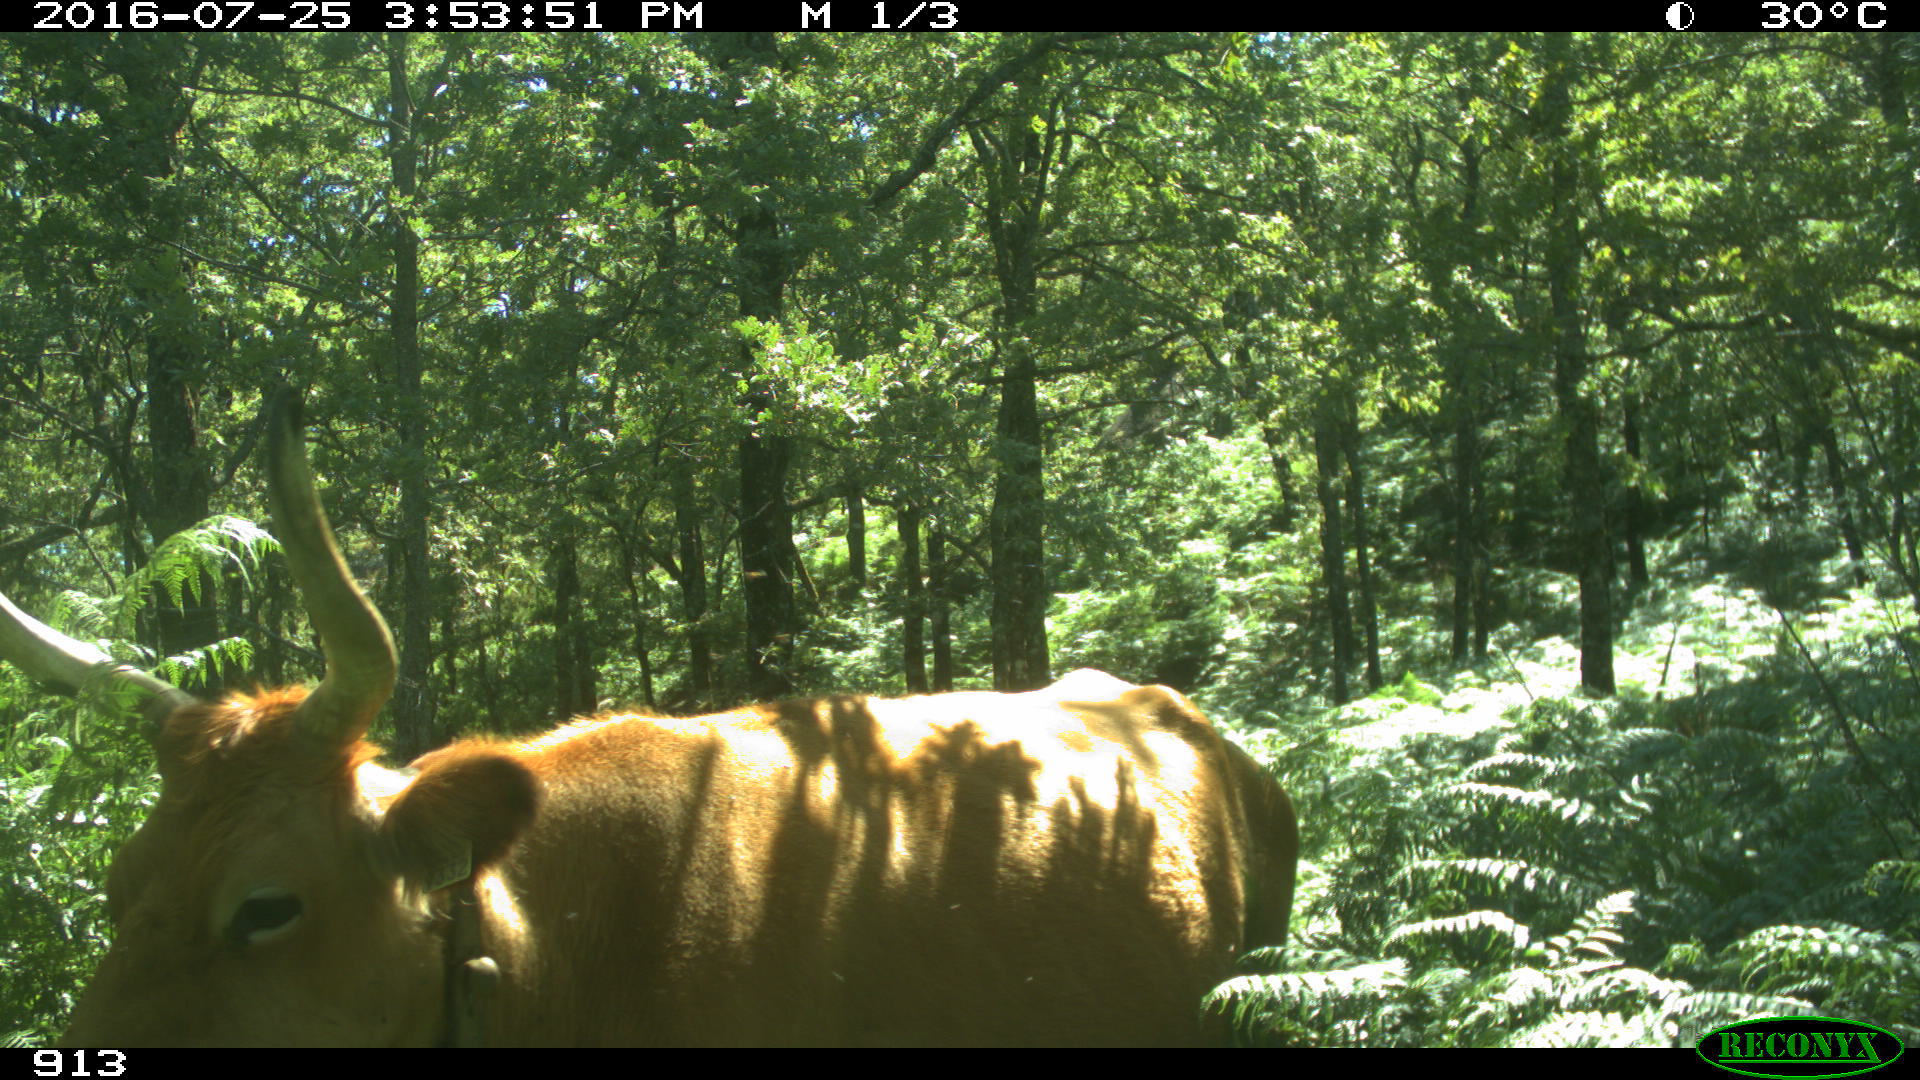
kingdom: Animalia
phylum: Chordata
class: Mammalia
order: Artiodactyla
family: Bovidae
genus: Bos
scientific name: Bos taurus
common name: Domesticated cattle
